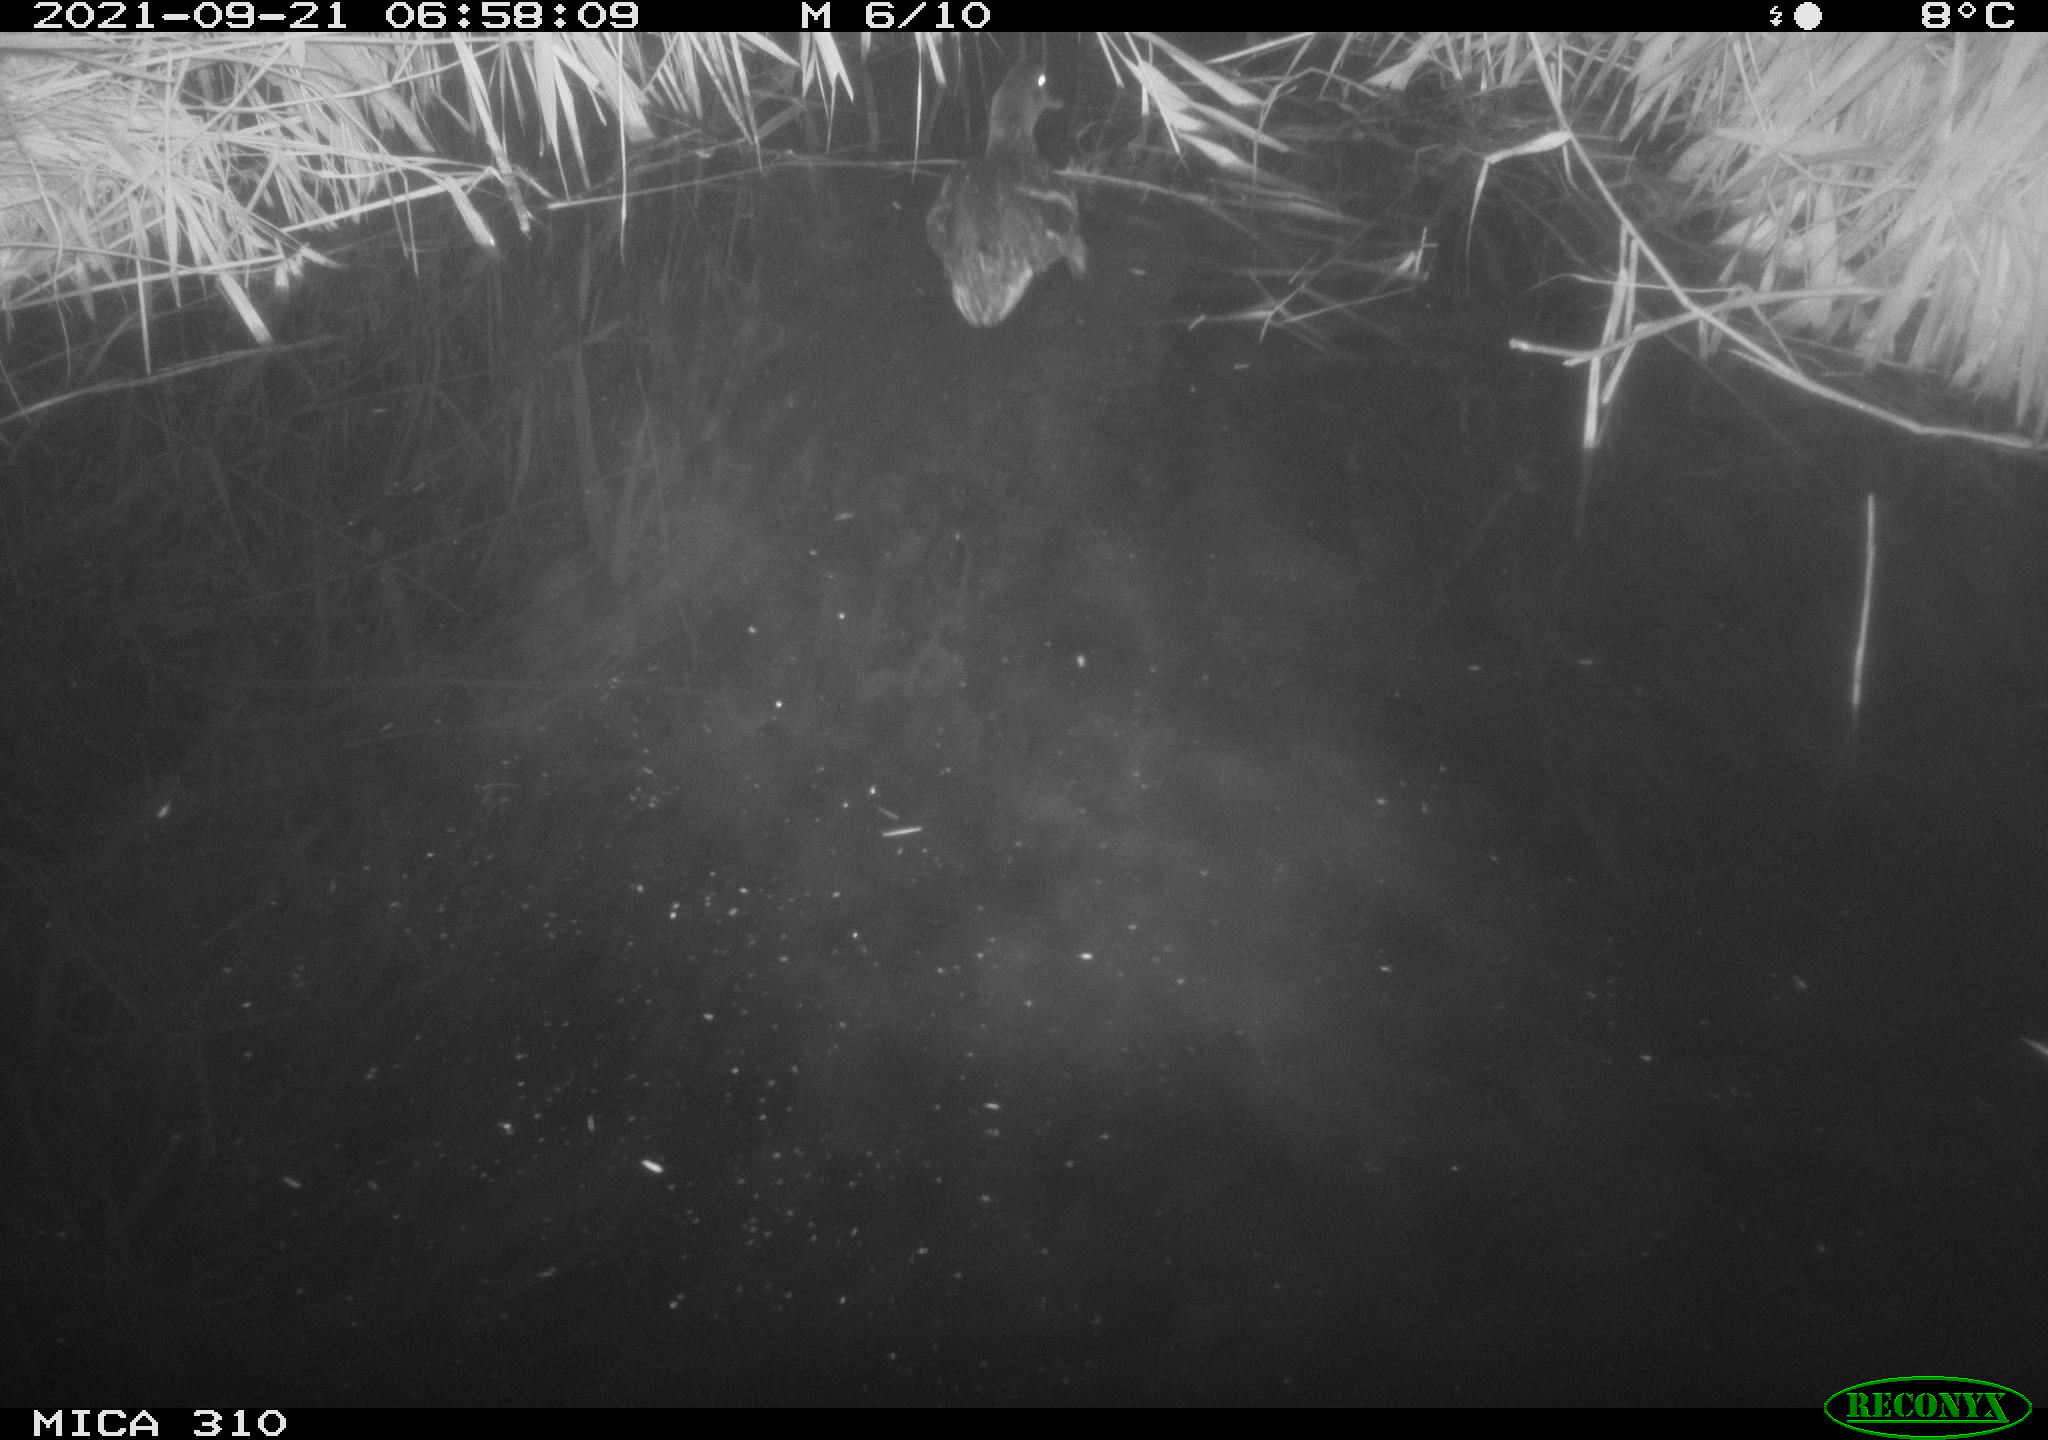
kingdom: Animalia
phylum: Chordata
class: Aves
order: Anseriformes
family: Anatidae
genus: Mareca
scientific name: Mareca strepera
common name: Gadwall
